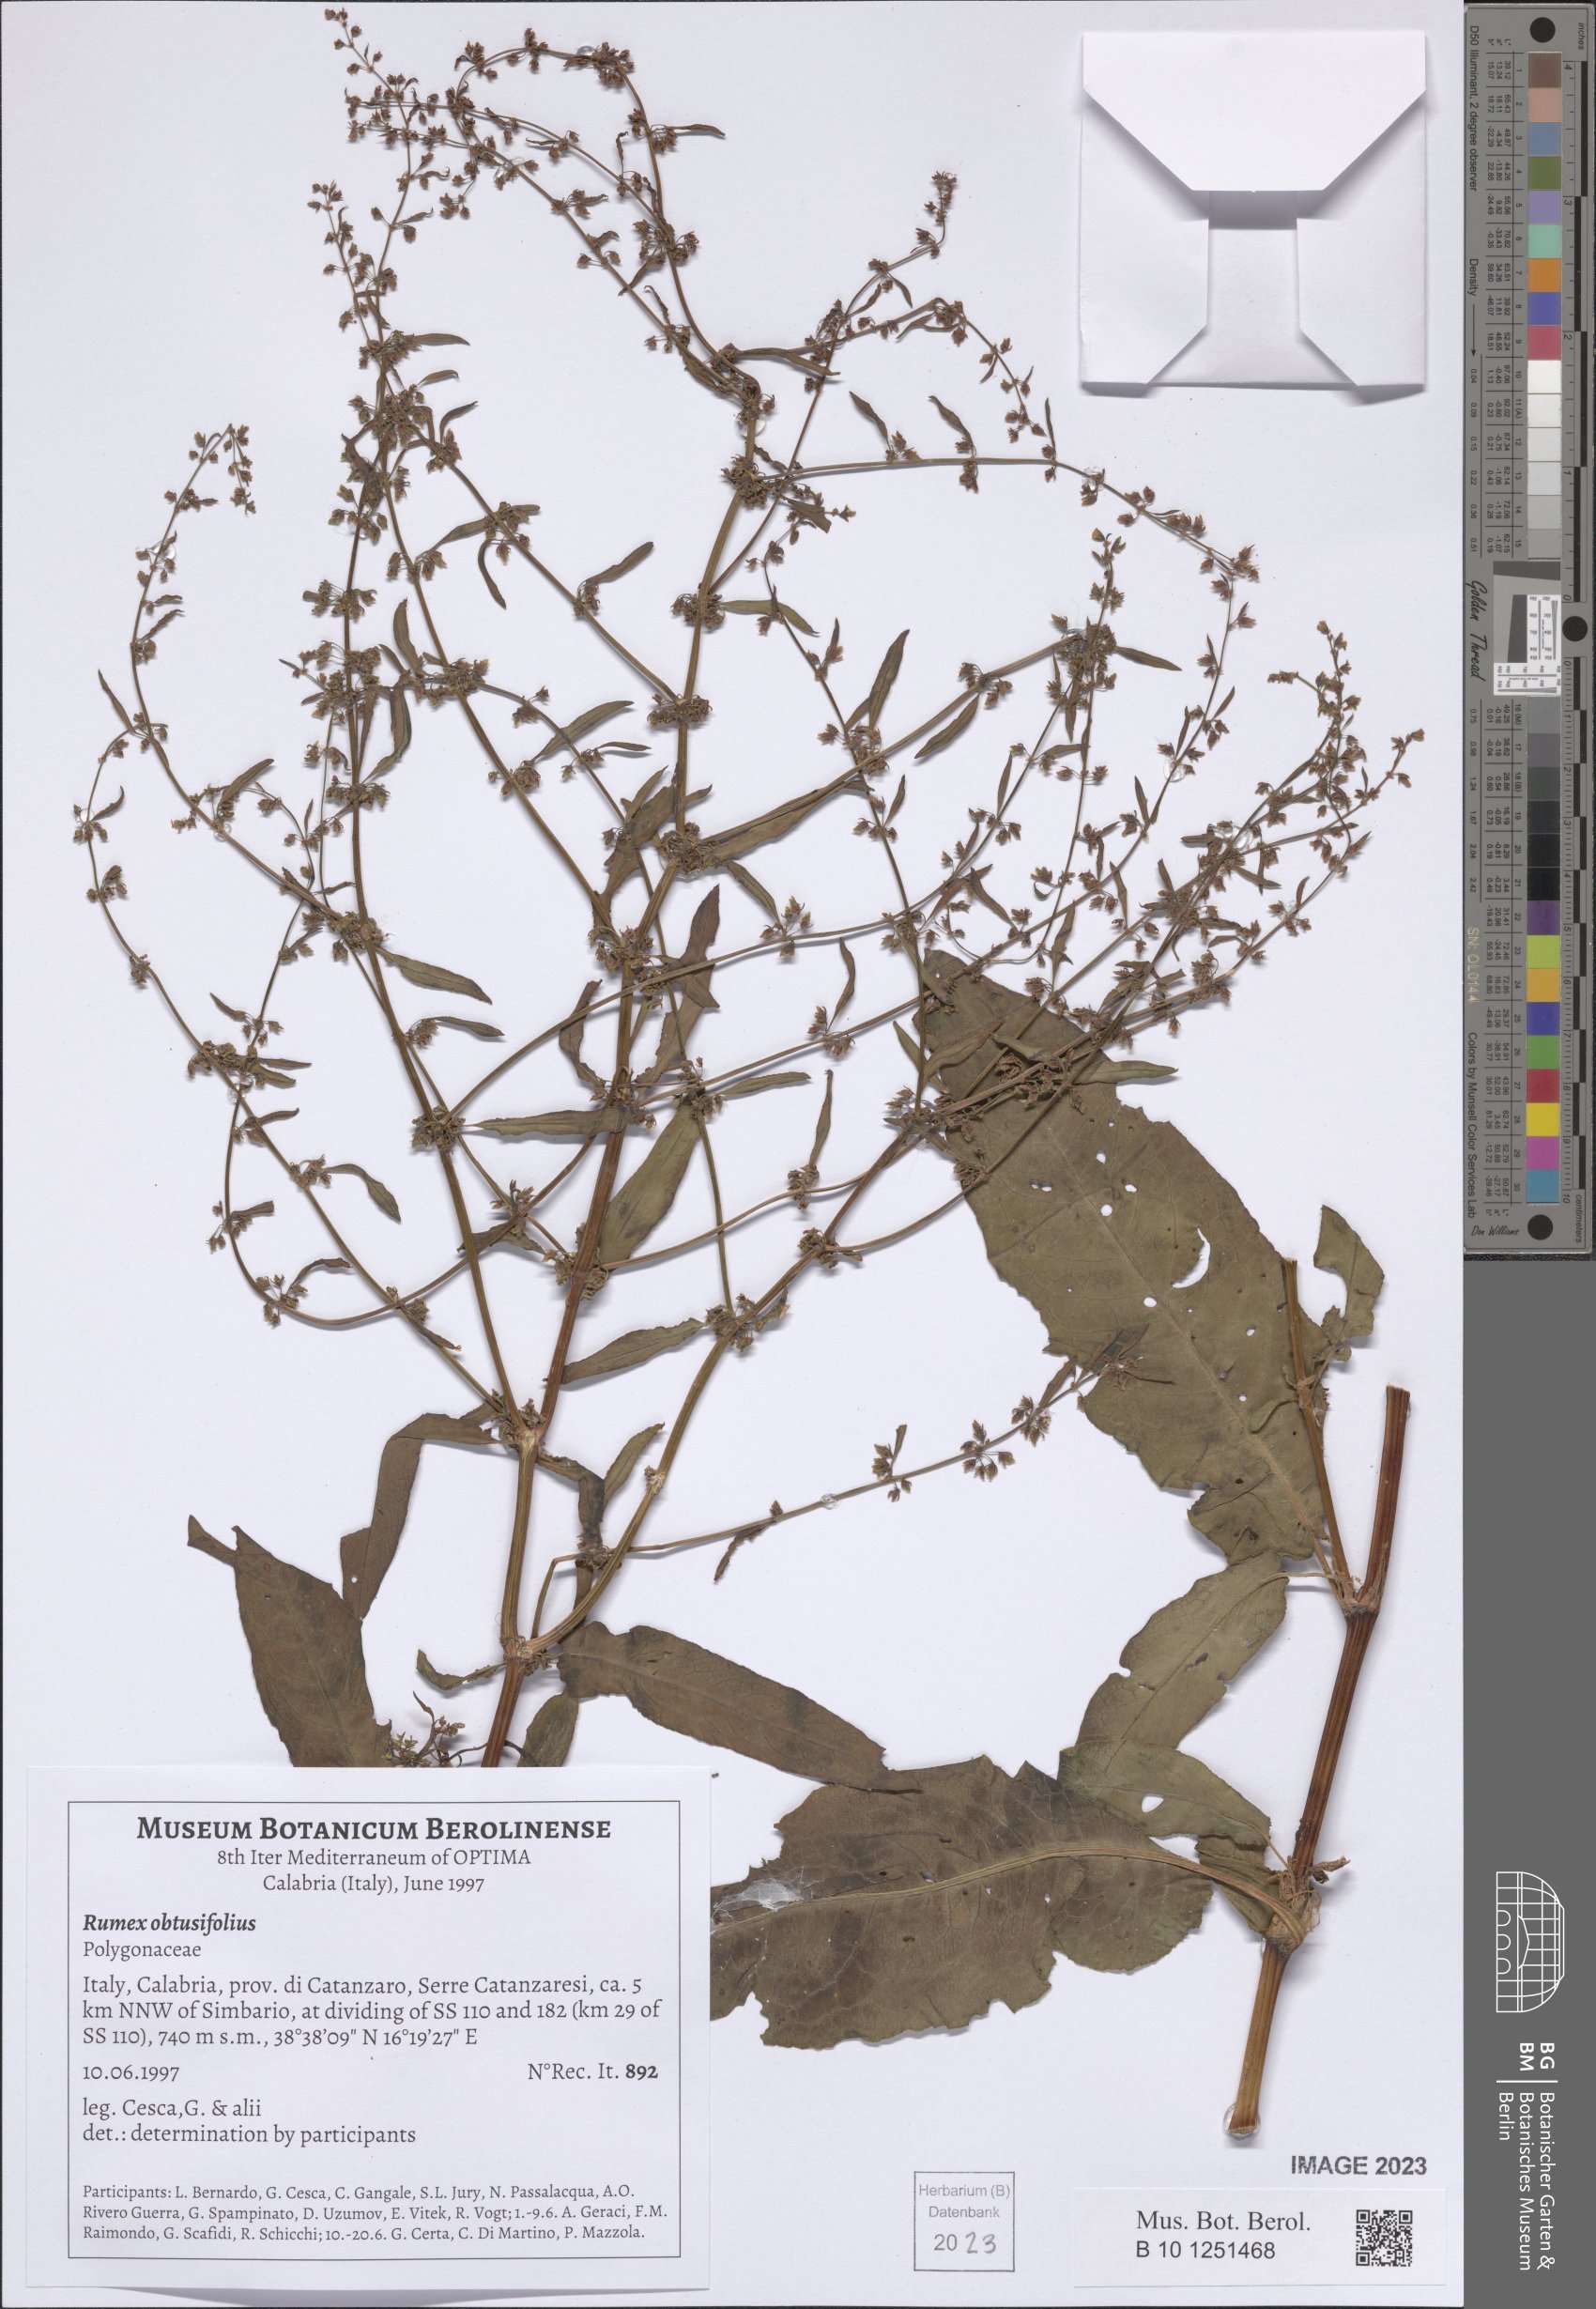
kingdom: Plantae
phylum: Tracheophyta
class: Magnoliopsida
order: Caryophyllales
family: Polygonaceae
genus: Rumex
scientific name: Rumex obtusifolius
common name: Bitter dock
